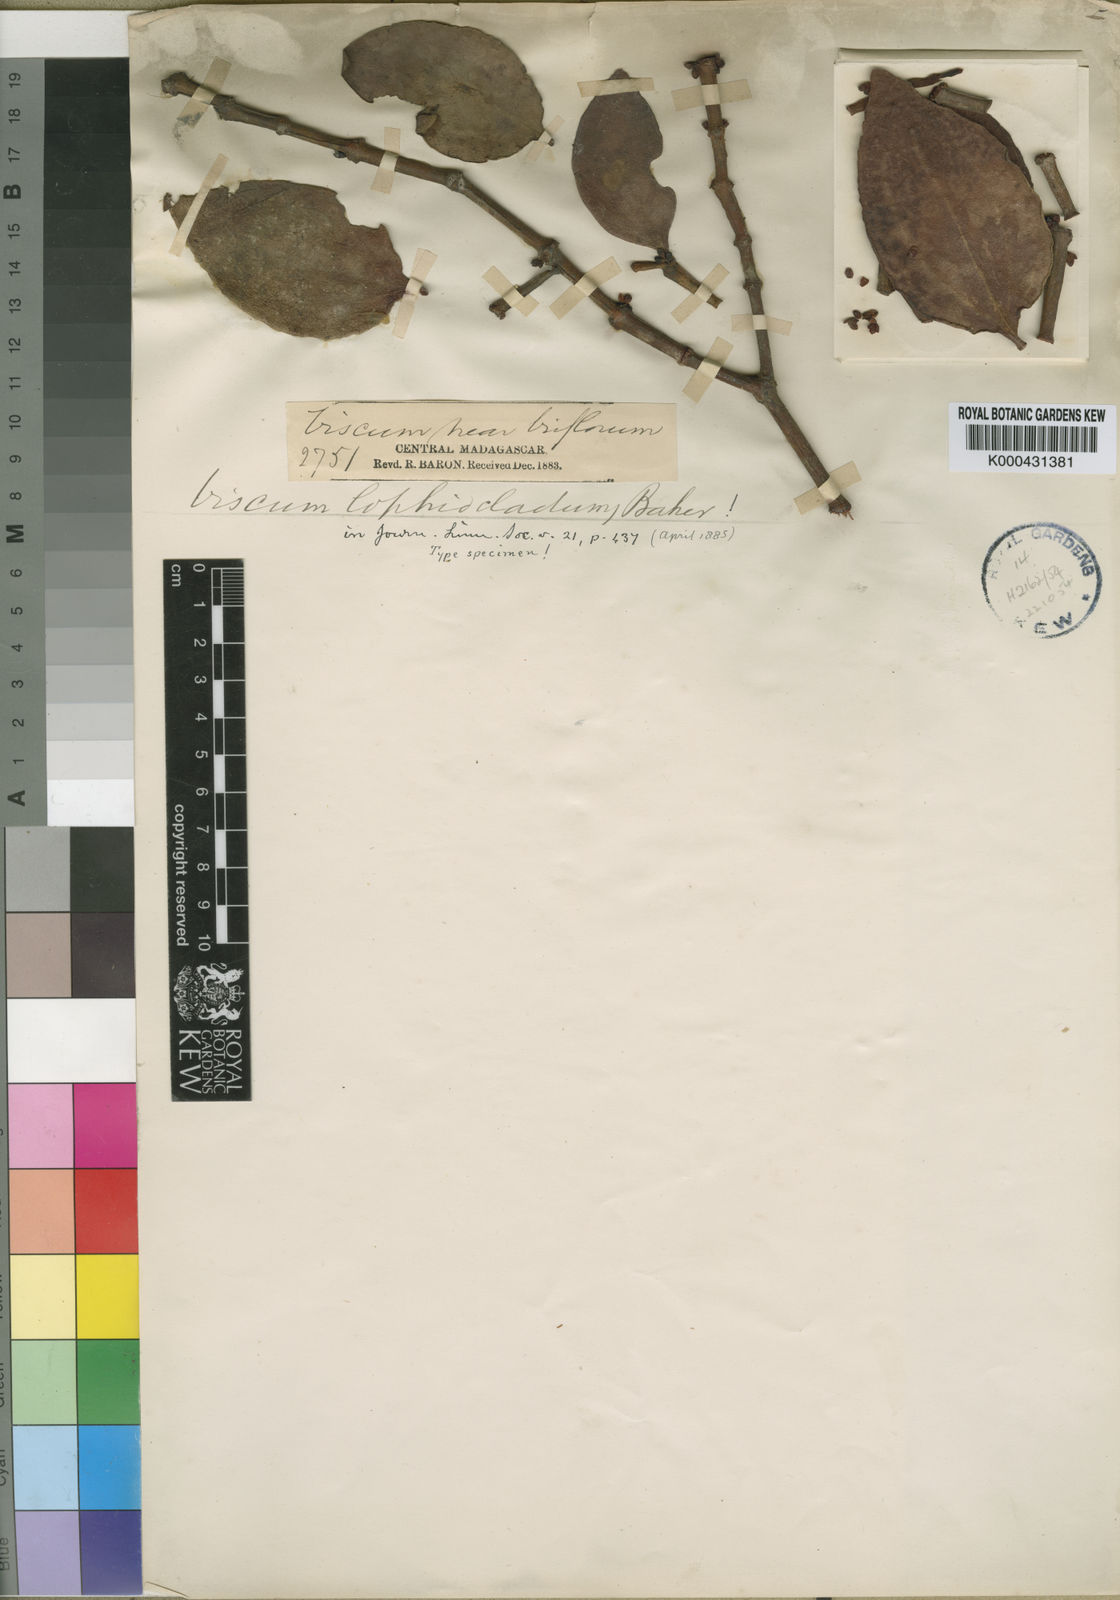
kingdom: Plantae
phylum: Tracheophyta
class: Magnoliopsida
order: Santalales
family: Viscaceae
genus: Viscum
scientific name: Viscum lophiocladum
